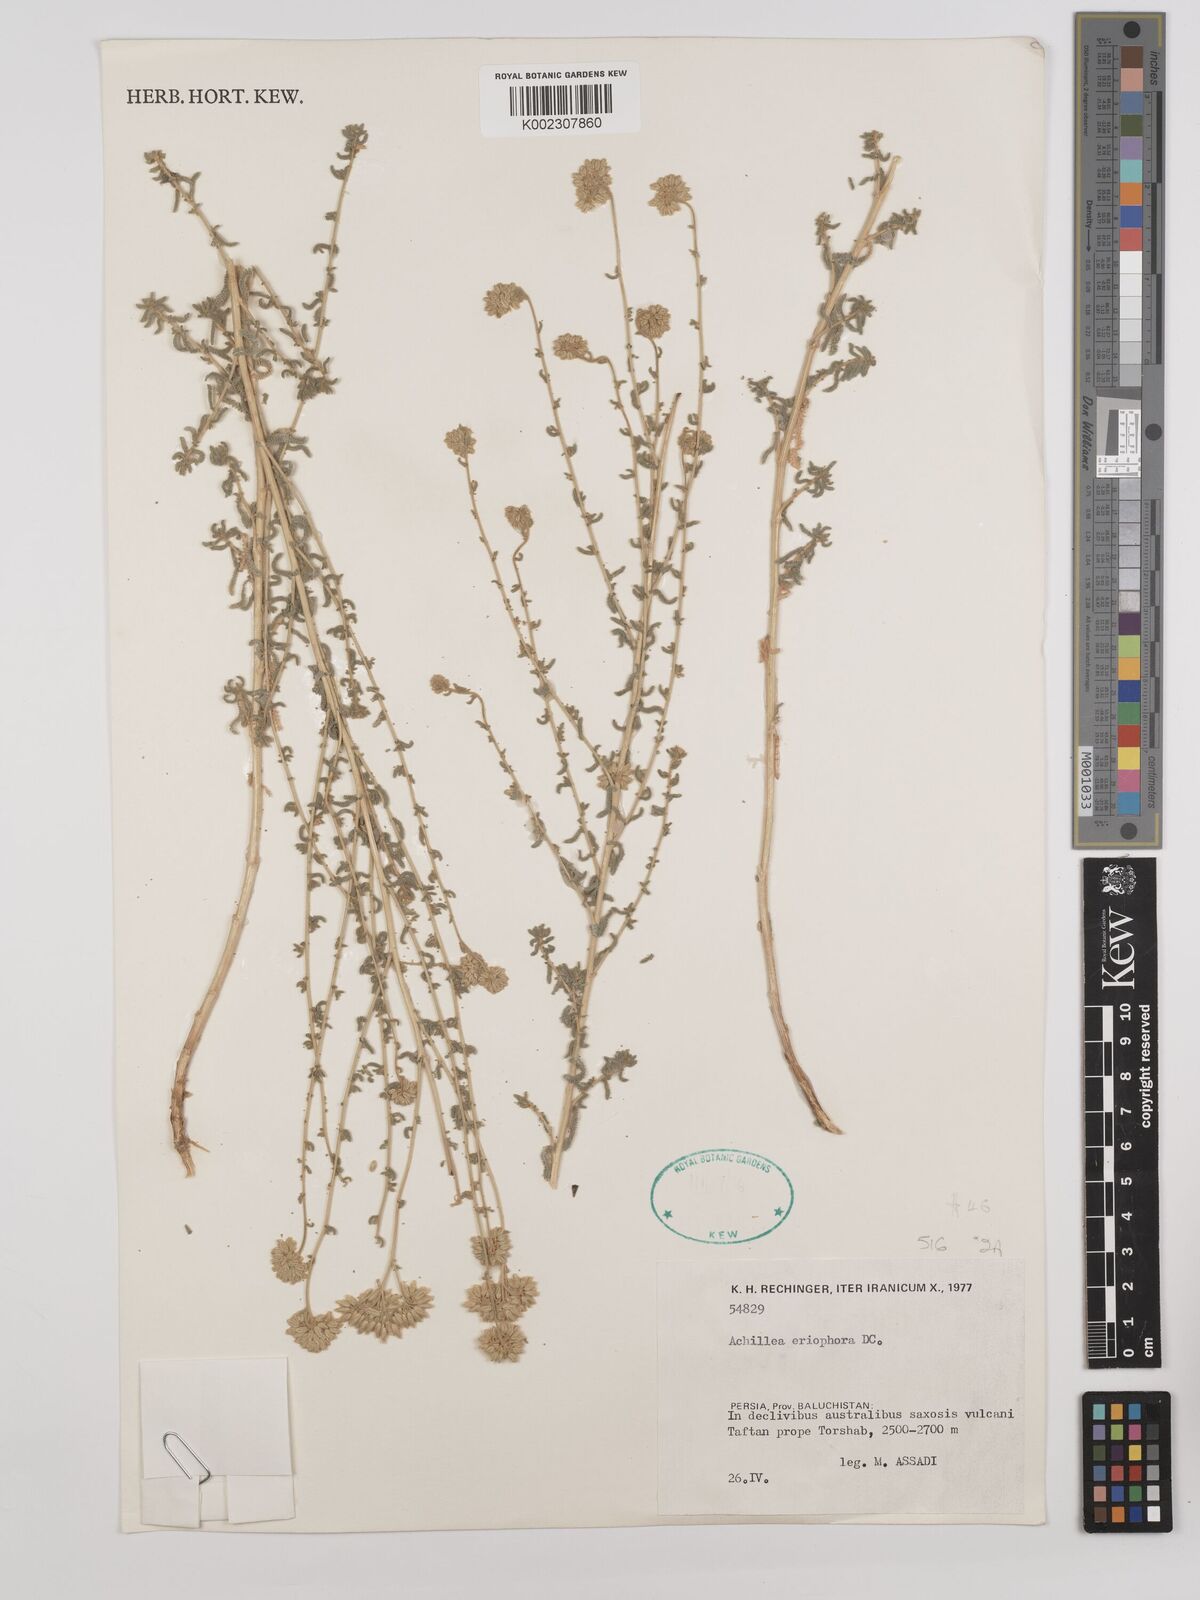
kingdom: Plantae
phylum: Tracheophyta
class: Magnoliopsida
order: Asterales
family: Asteraceae
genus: Achillea
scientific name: Achillea wilhelmsii
